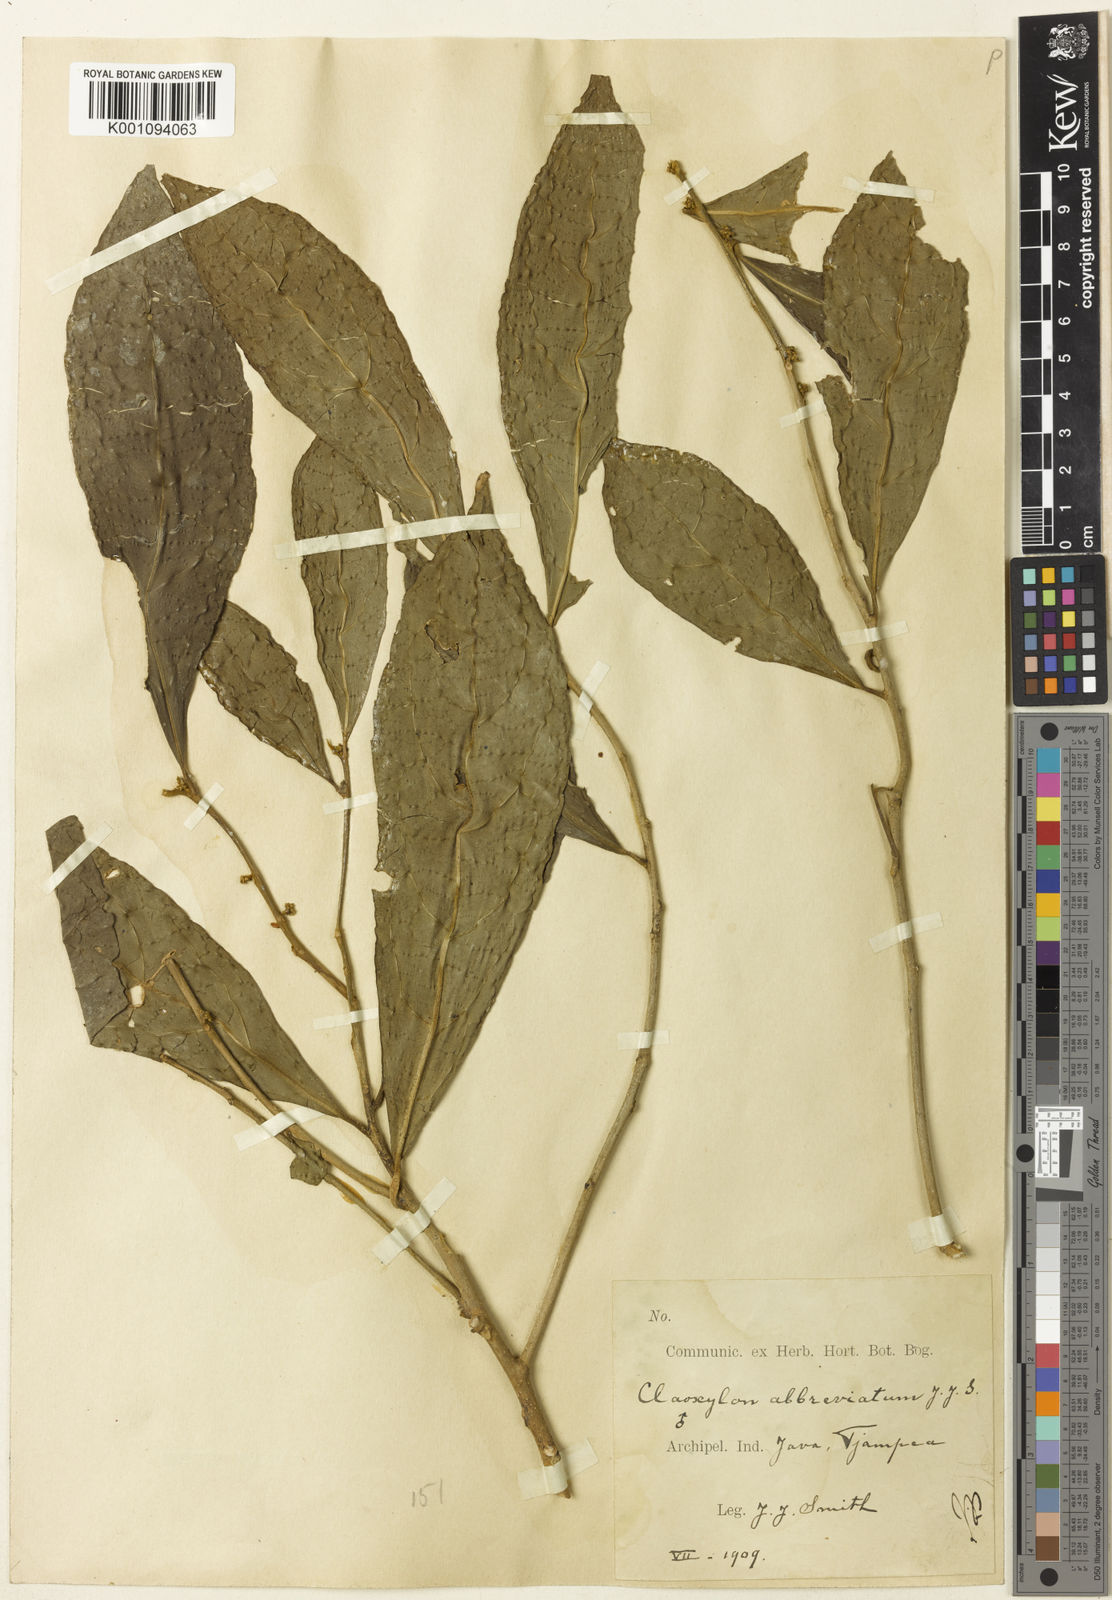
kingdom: Plantae
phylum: Tracheophyta
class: Magnoliopsida
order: Malpighiales
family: Euphorbiaceae
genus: Claoxylon
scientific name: Claoxylon
